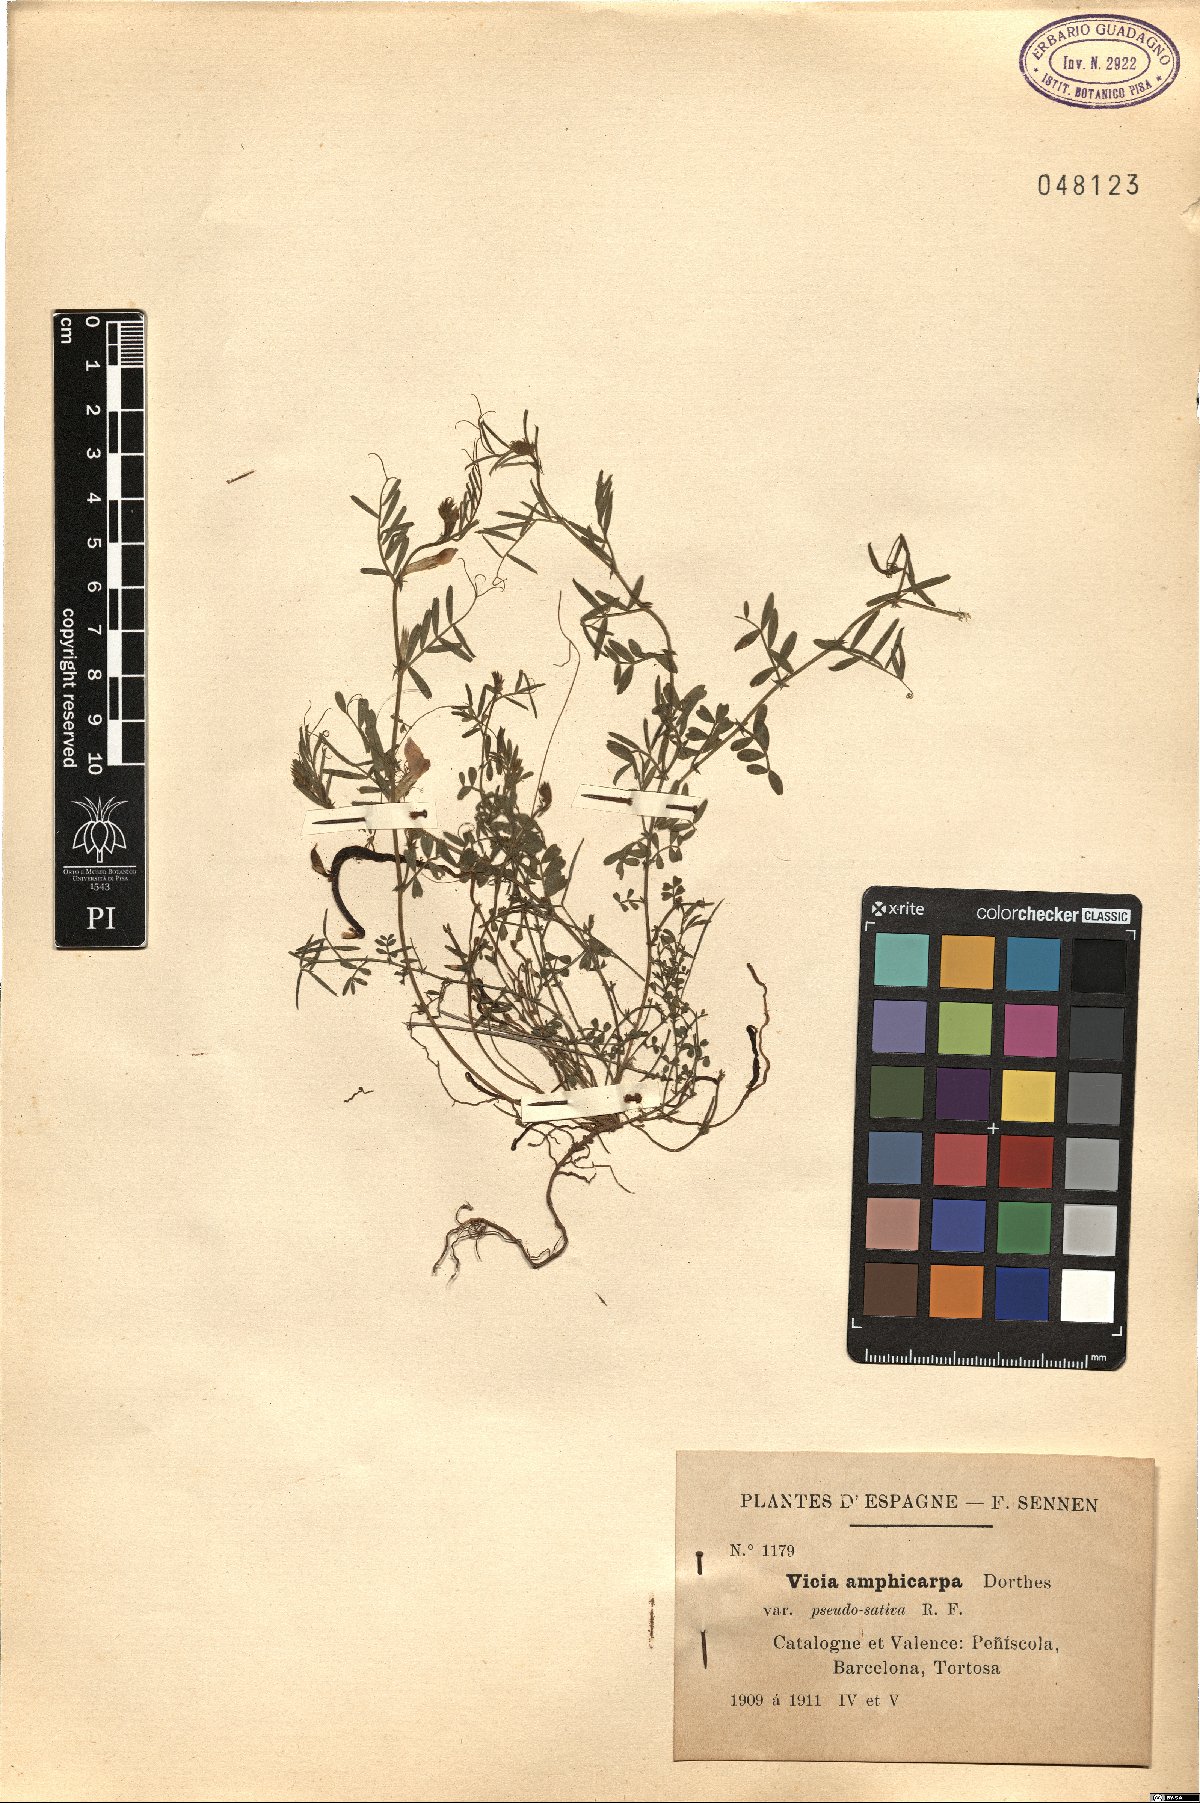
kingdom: Plantae
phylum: Tracheophyta
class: Magnoliopsida
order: Fabales
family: Fabaceae
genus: Vicia
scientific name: Vicia sativa
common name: Garden vetch
